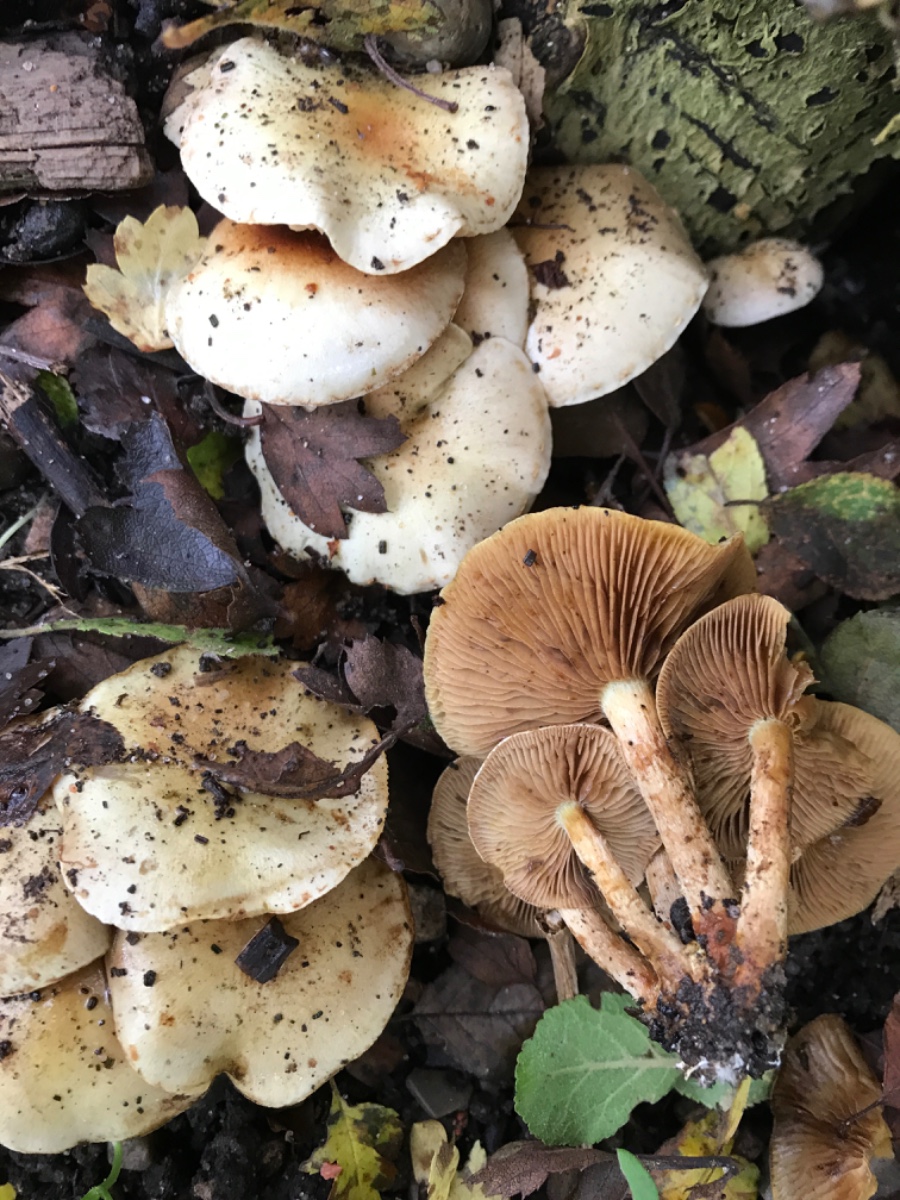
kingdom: Fungi
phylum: Basidiomycota
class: Agaricomycetes
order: Agaricales
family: Strophariaceae
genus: Pholiota
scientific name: Pholiota gummosa
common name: grøngul skælhat
